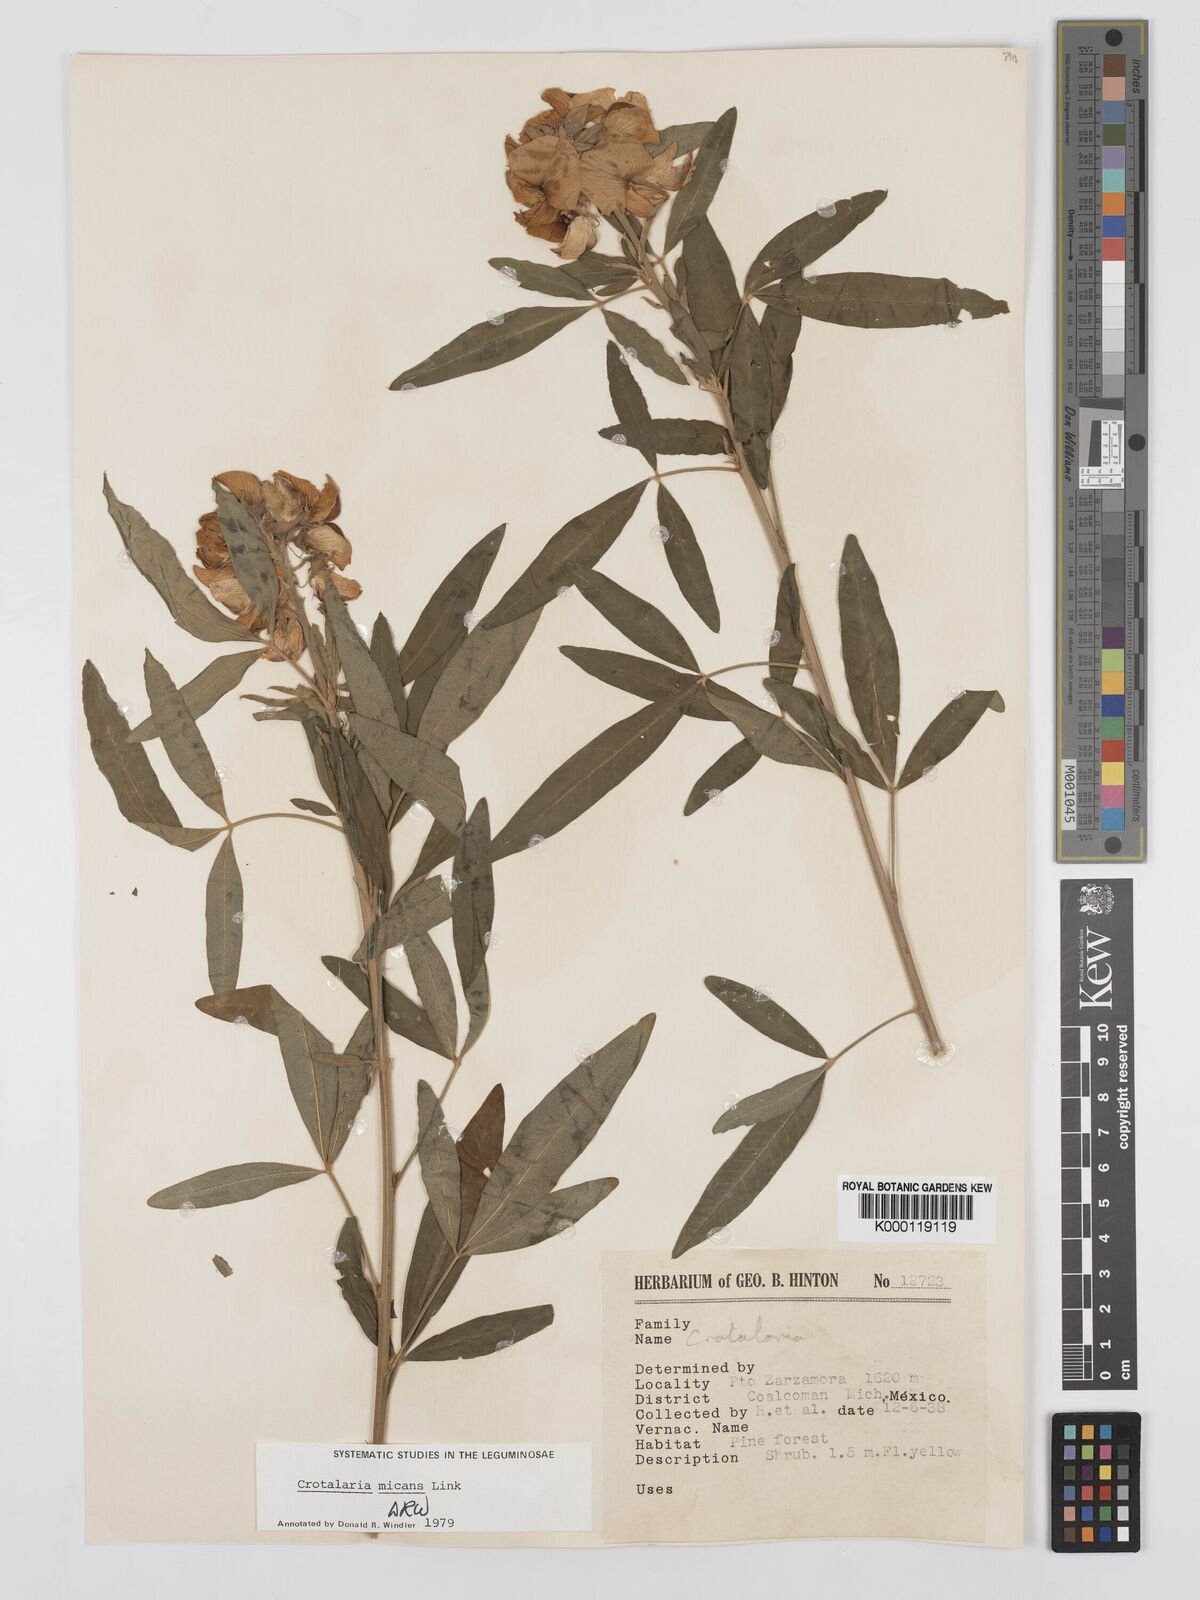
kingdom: Plantae
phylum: Tracheophyta
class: Magnoliopsida
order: Fabales
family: Fabaceae
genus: Crotalaria
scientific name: Crotalaria micans
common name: Caracas rattlebox
